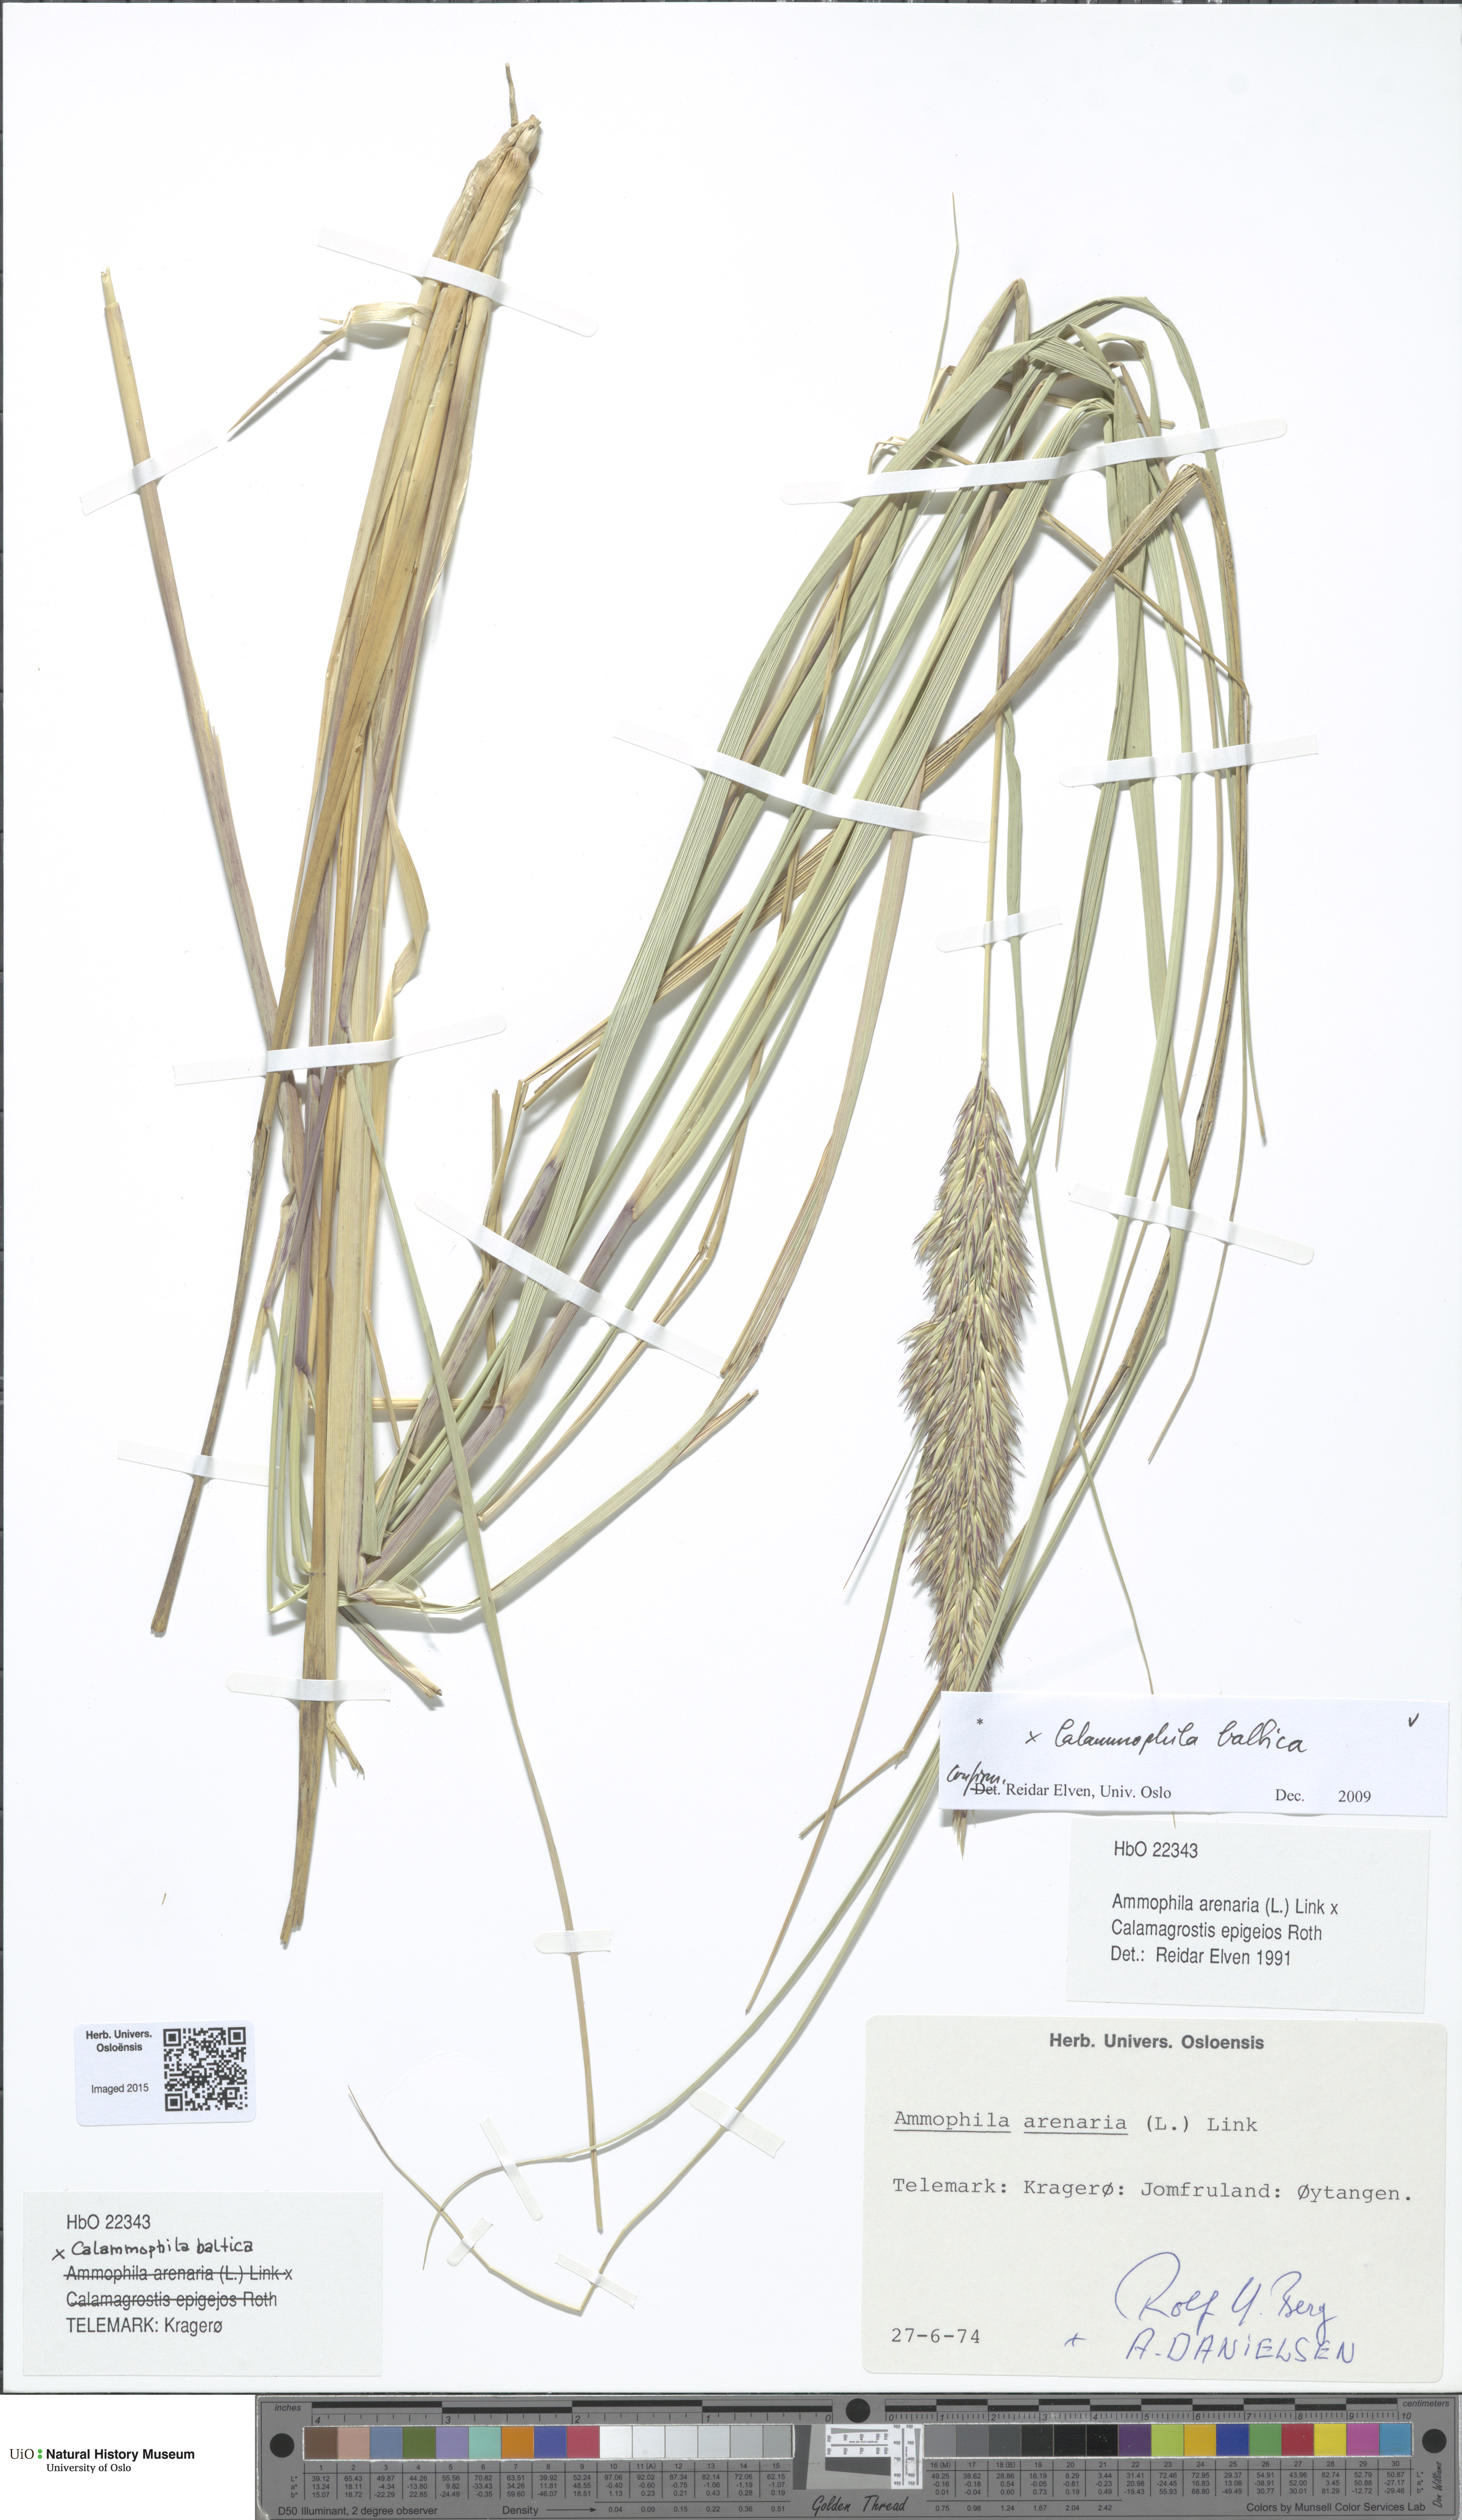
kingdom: Plantae
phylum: Tracheophyta
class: Liliopsida
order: Poales
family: Poaceae
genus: Calamagrostis
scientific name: Calamagrostis baltica
